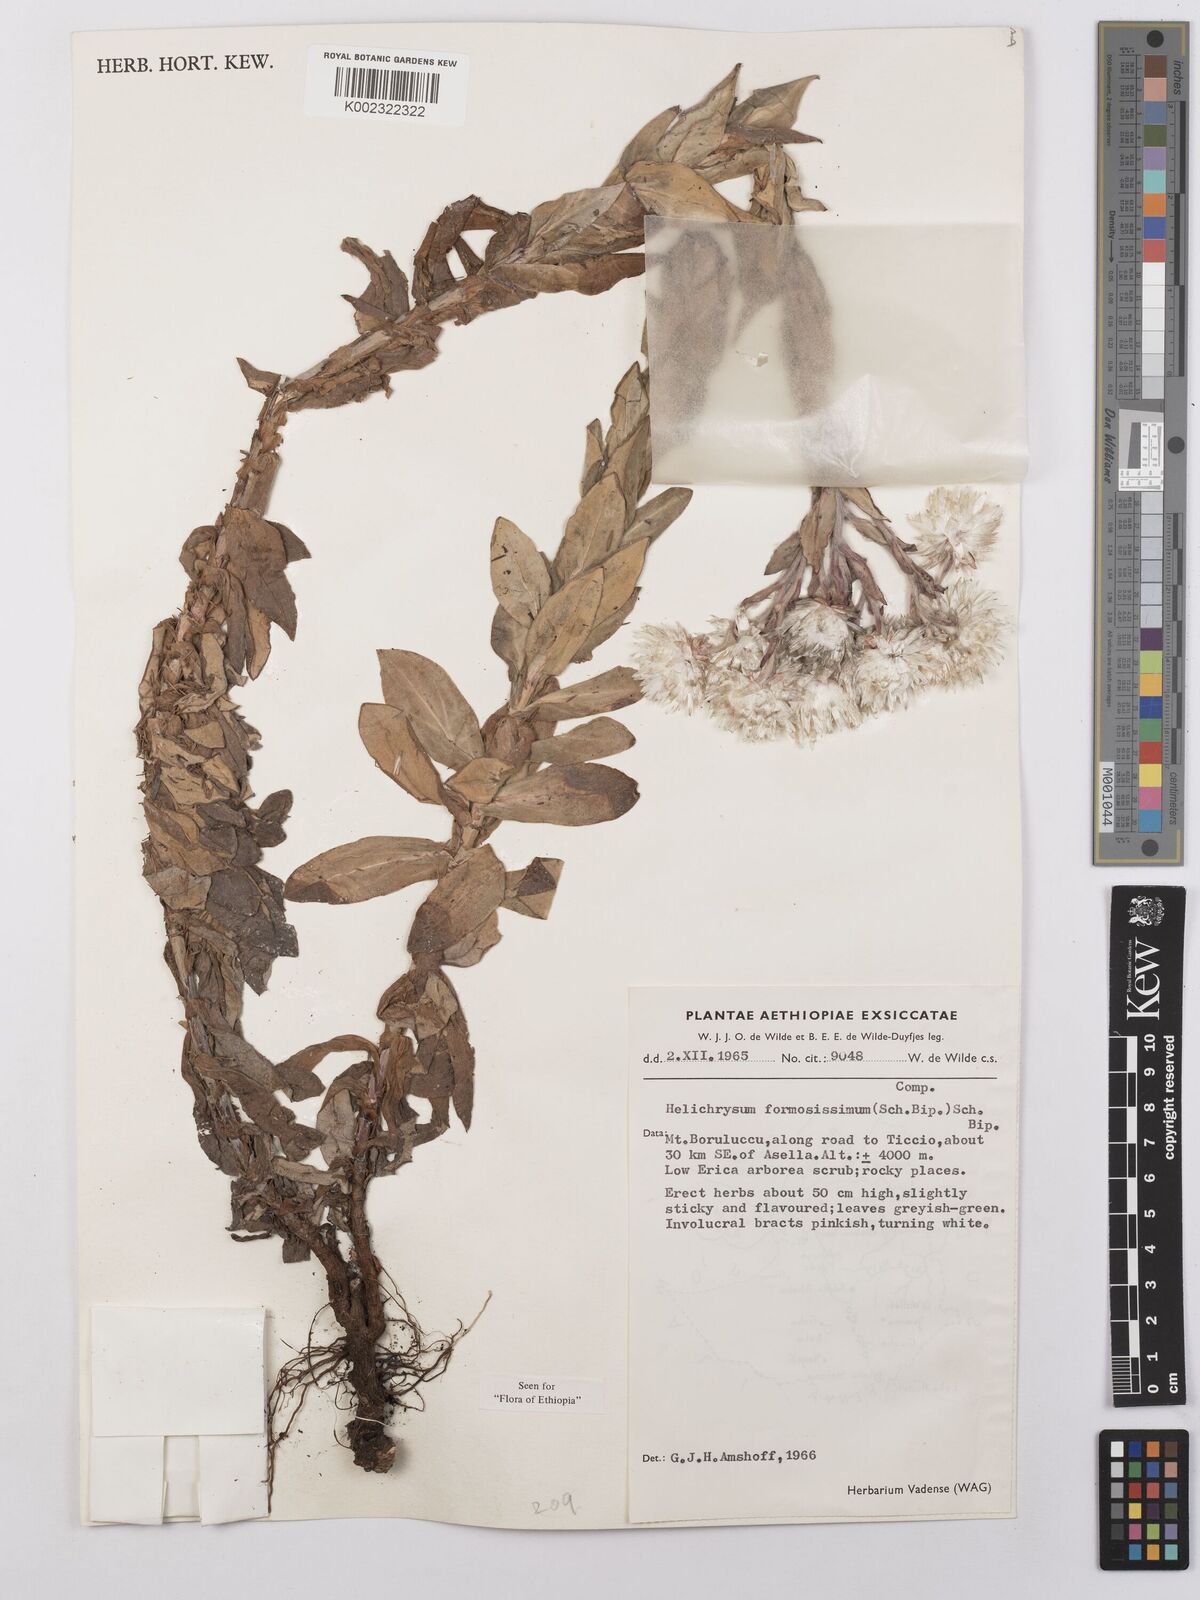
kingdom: Plantae
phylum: Tracheophyta
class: Magnoliopsida
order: Asterales
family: Asteraceae
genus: Helichrysum
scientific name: Helichrysum formosissimum
